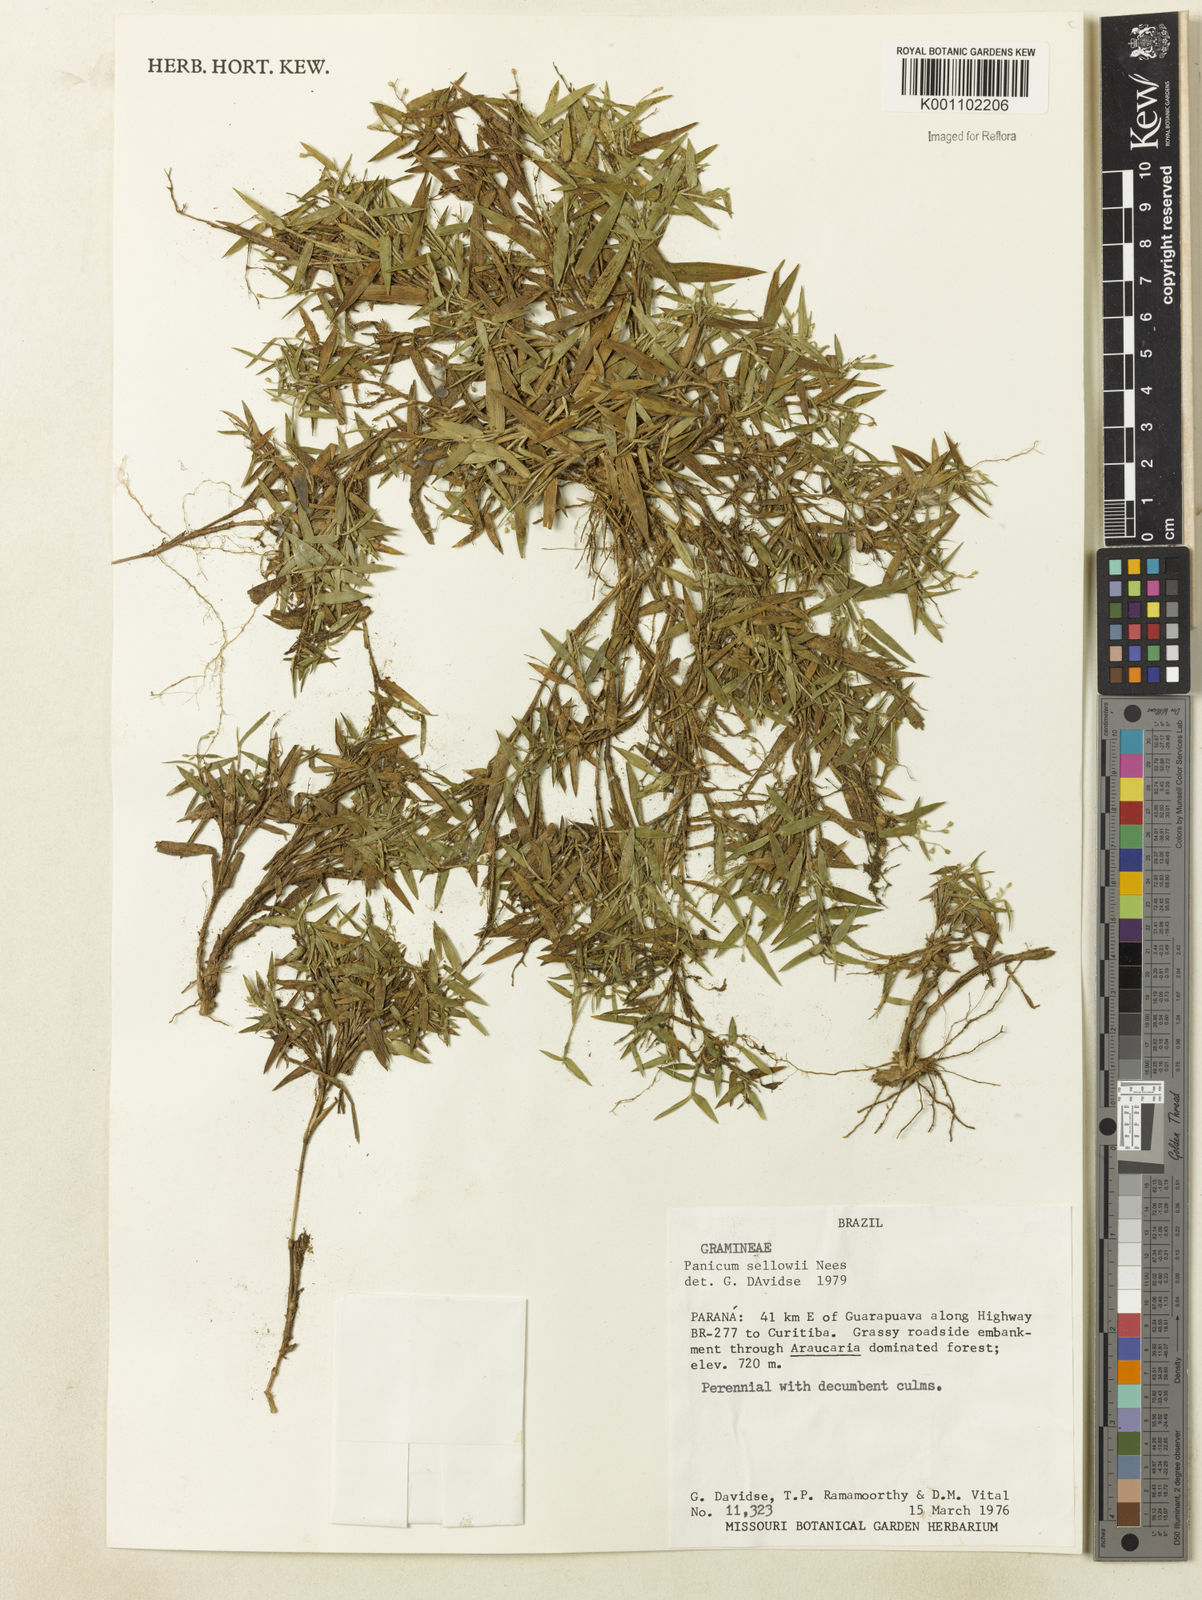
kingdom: Plantae
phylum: Tracheophyta
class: Liliopsida
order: Poales
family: Poaceae
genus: Dichanthelium
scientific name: Dichanthelium sabulorum
